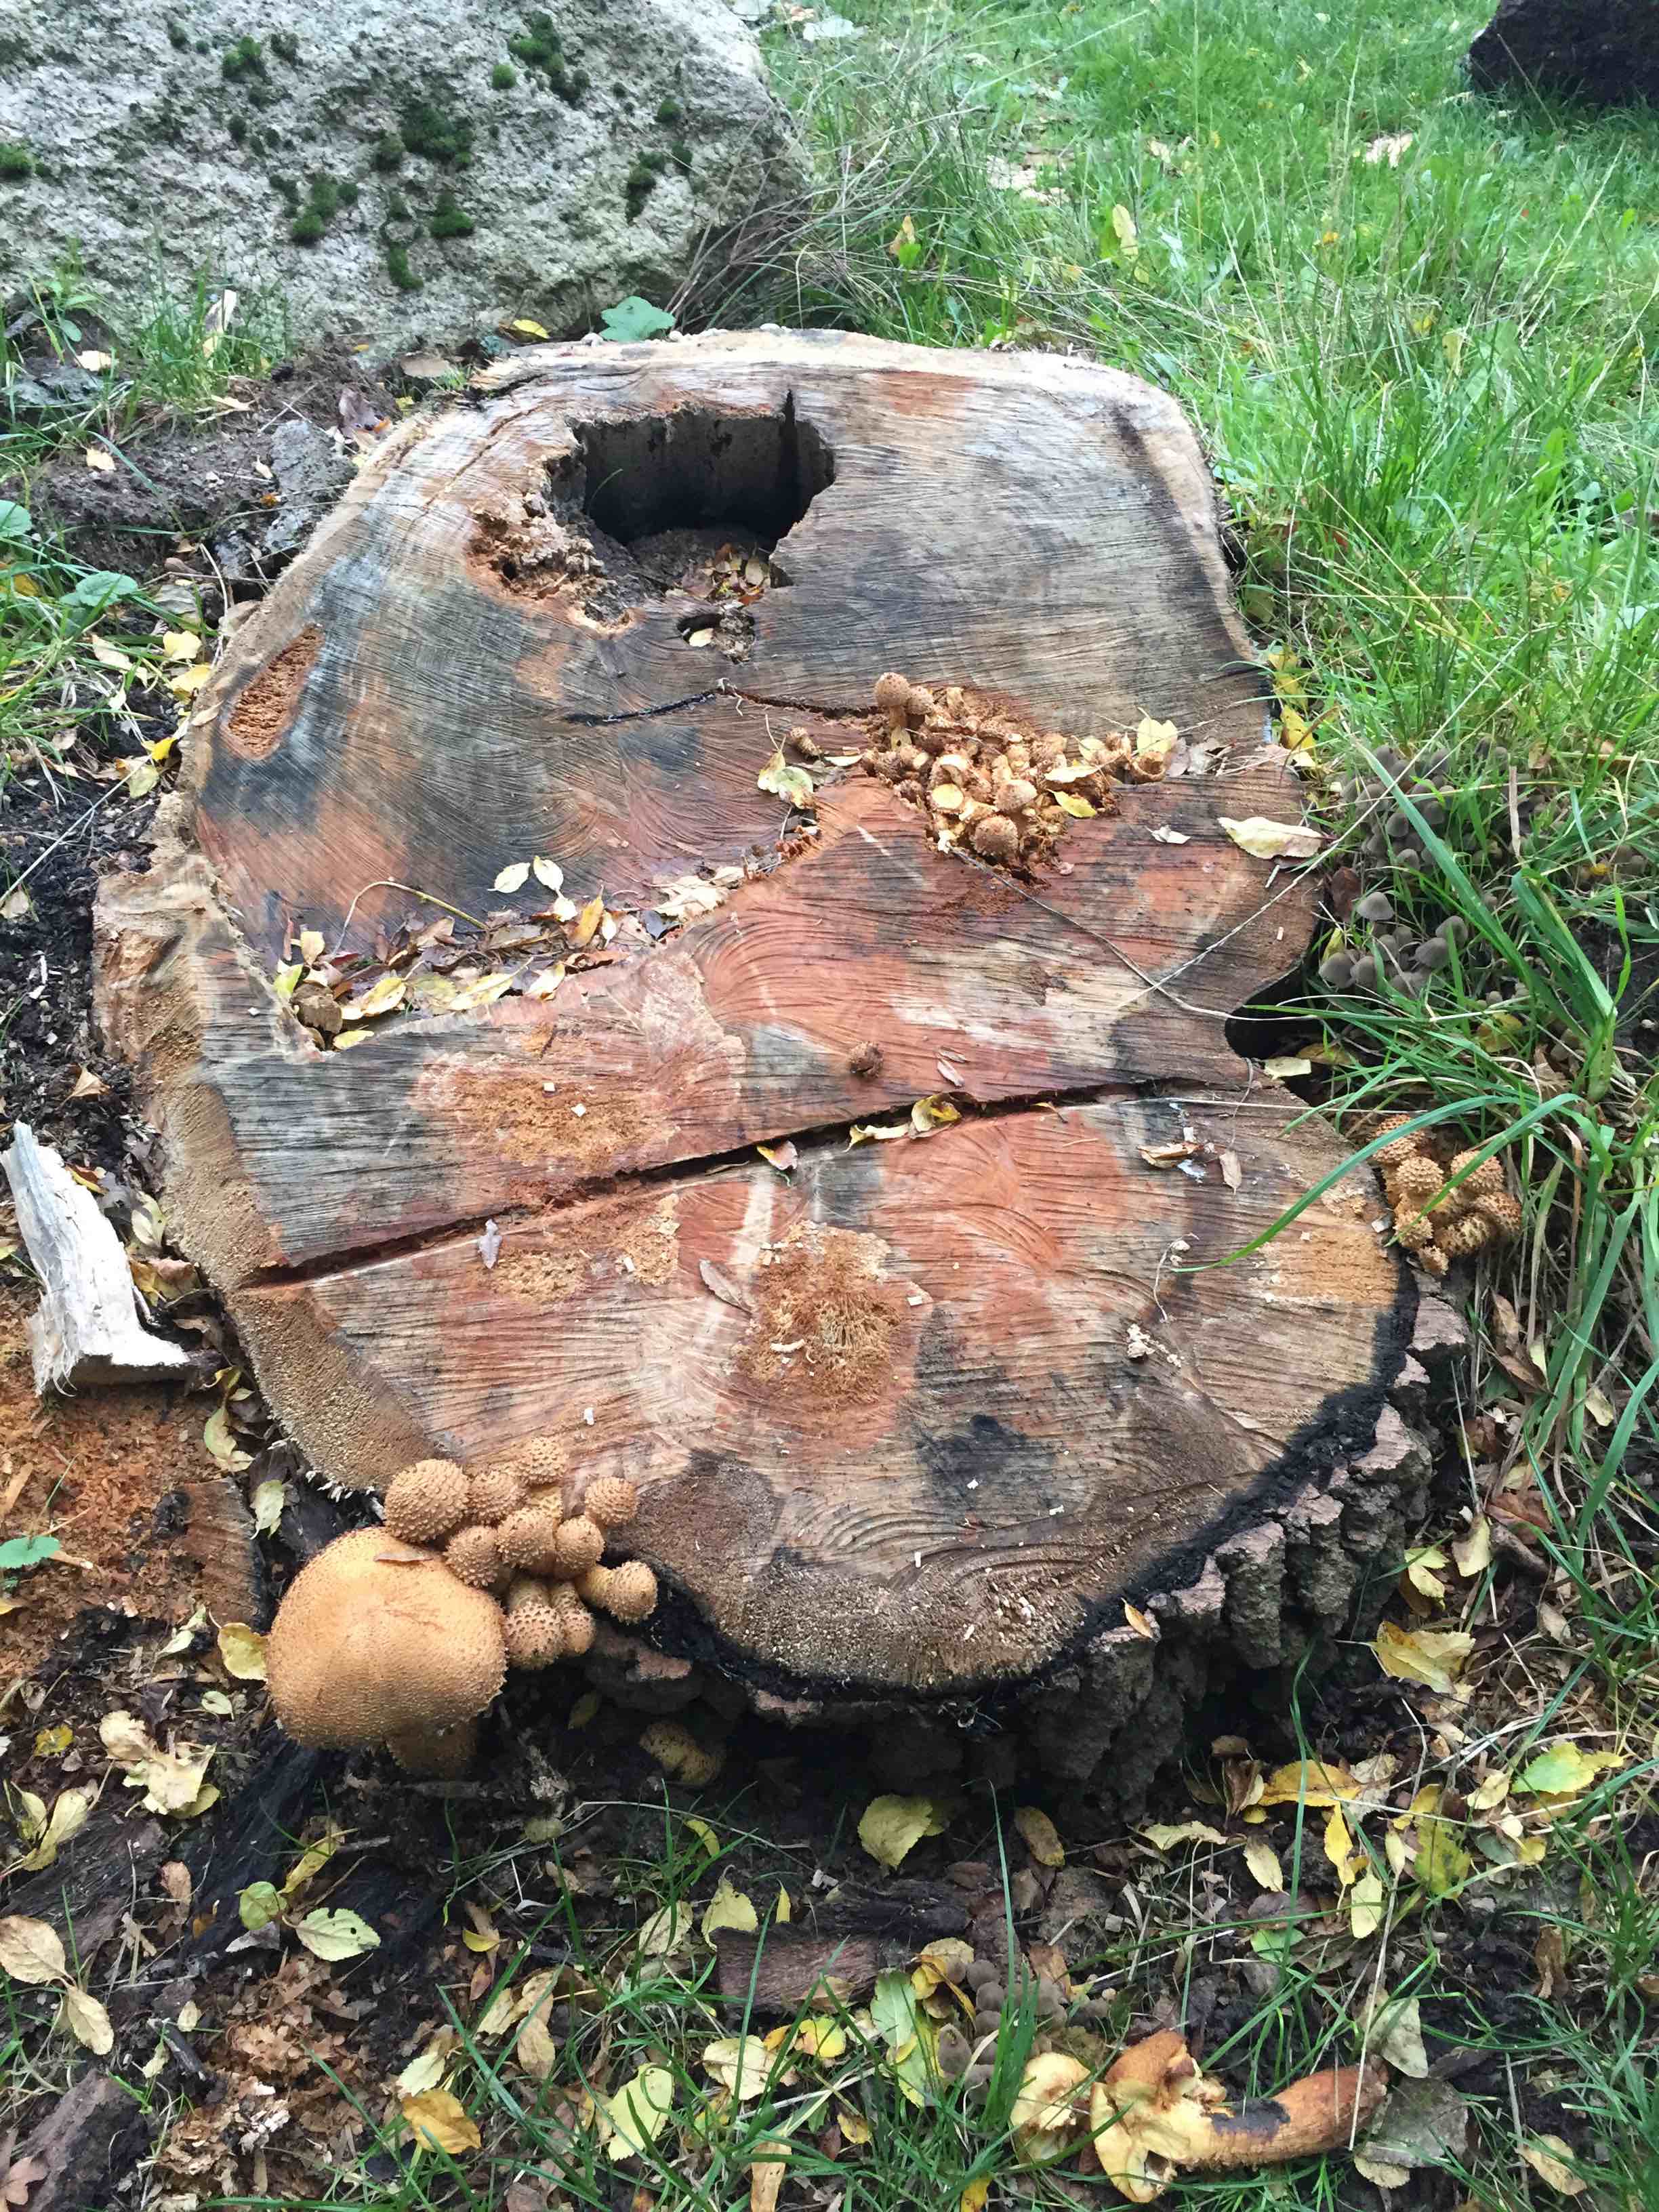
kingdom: Fungi
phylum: Basidiomycota
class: Agaricomycetes
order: Agaricales
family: Strophariaceae
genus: Pholiota
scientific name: Pholiota squarrosa
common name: krumskællet skælhat
